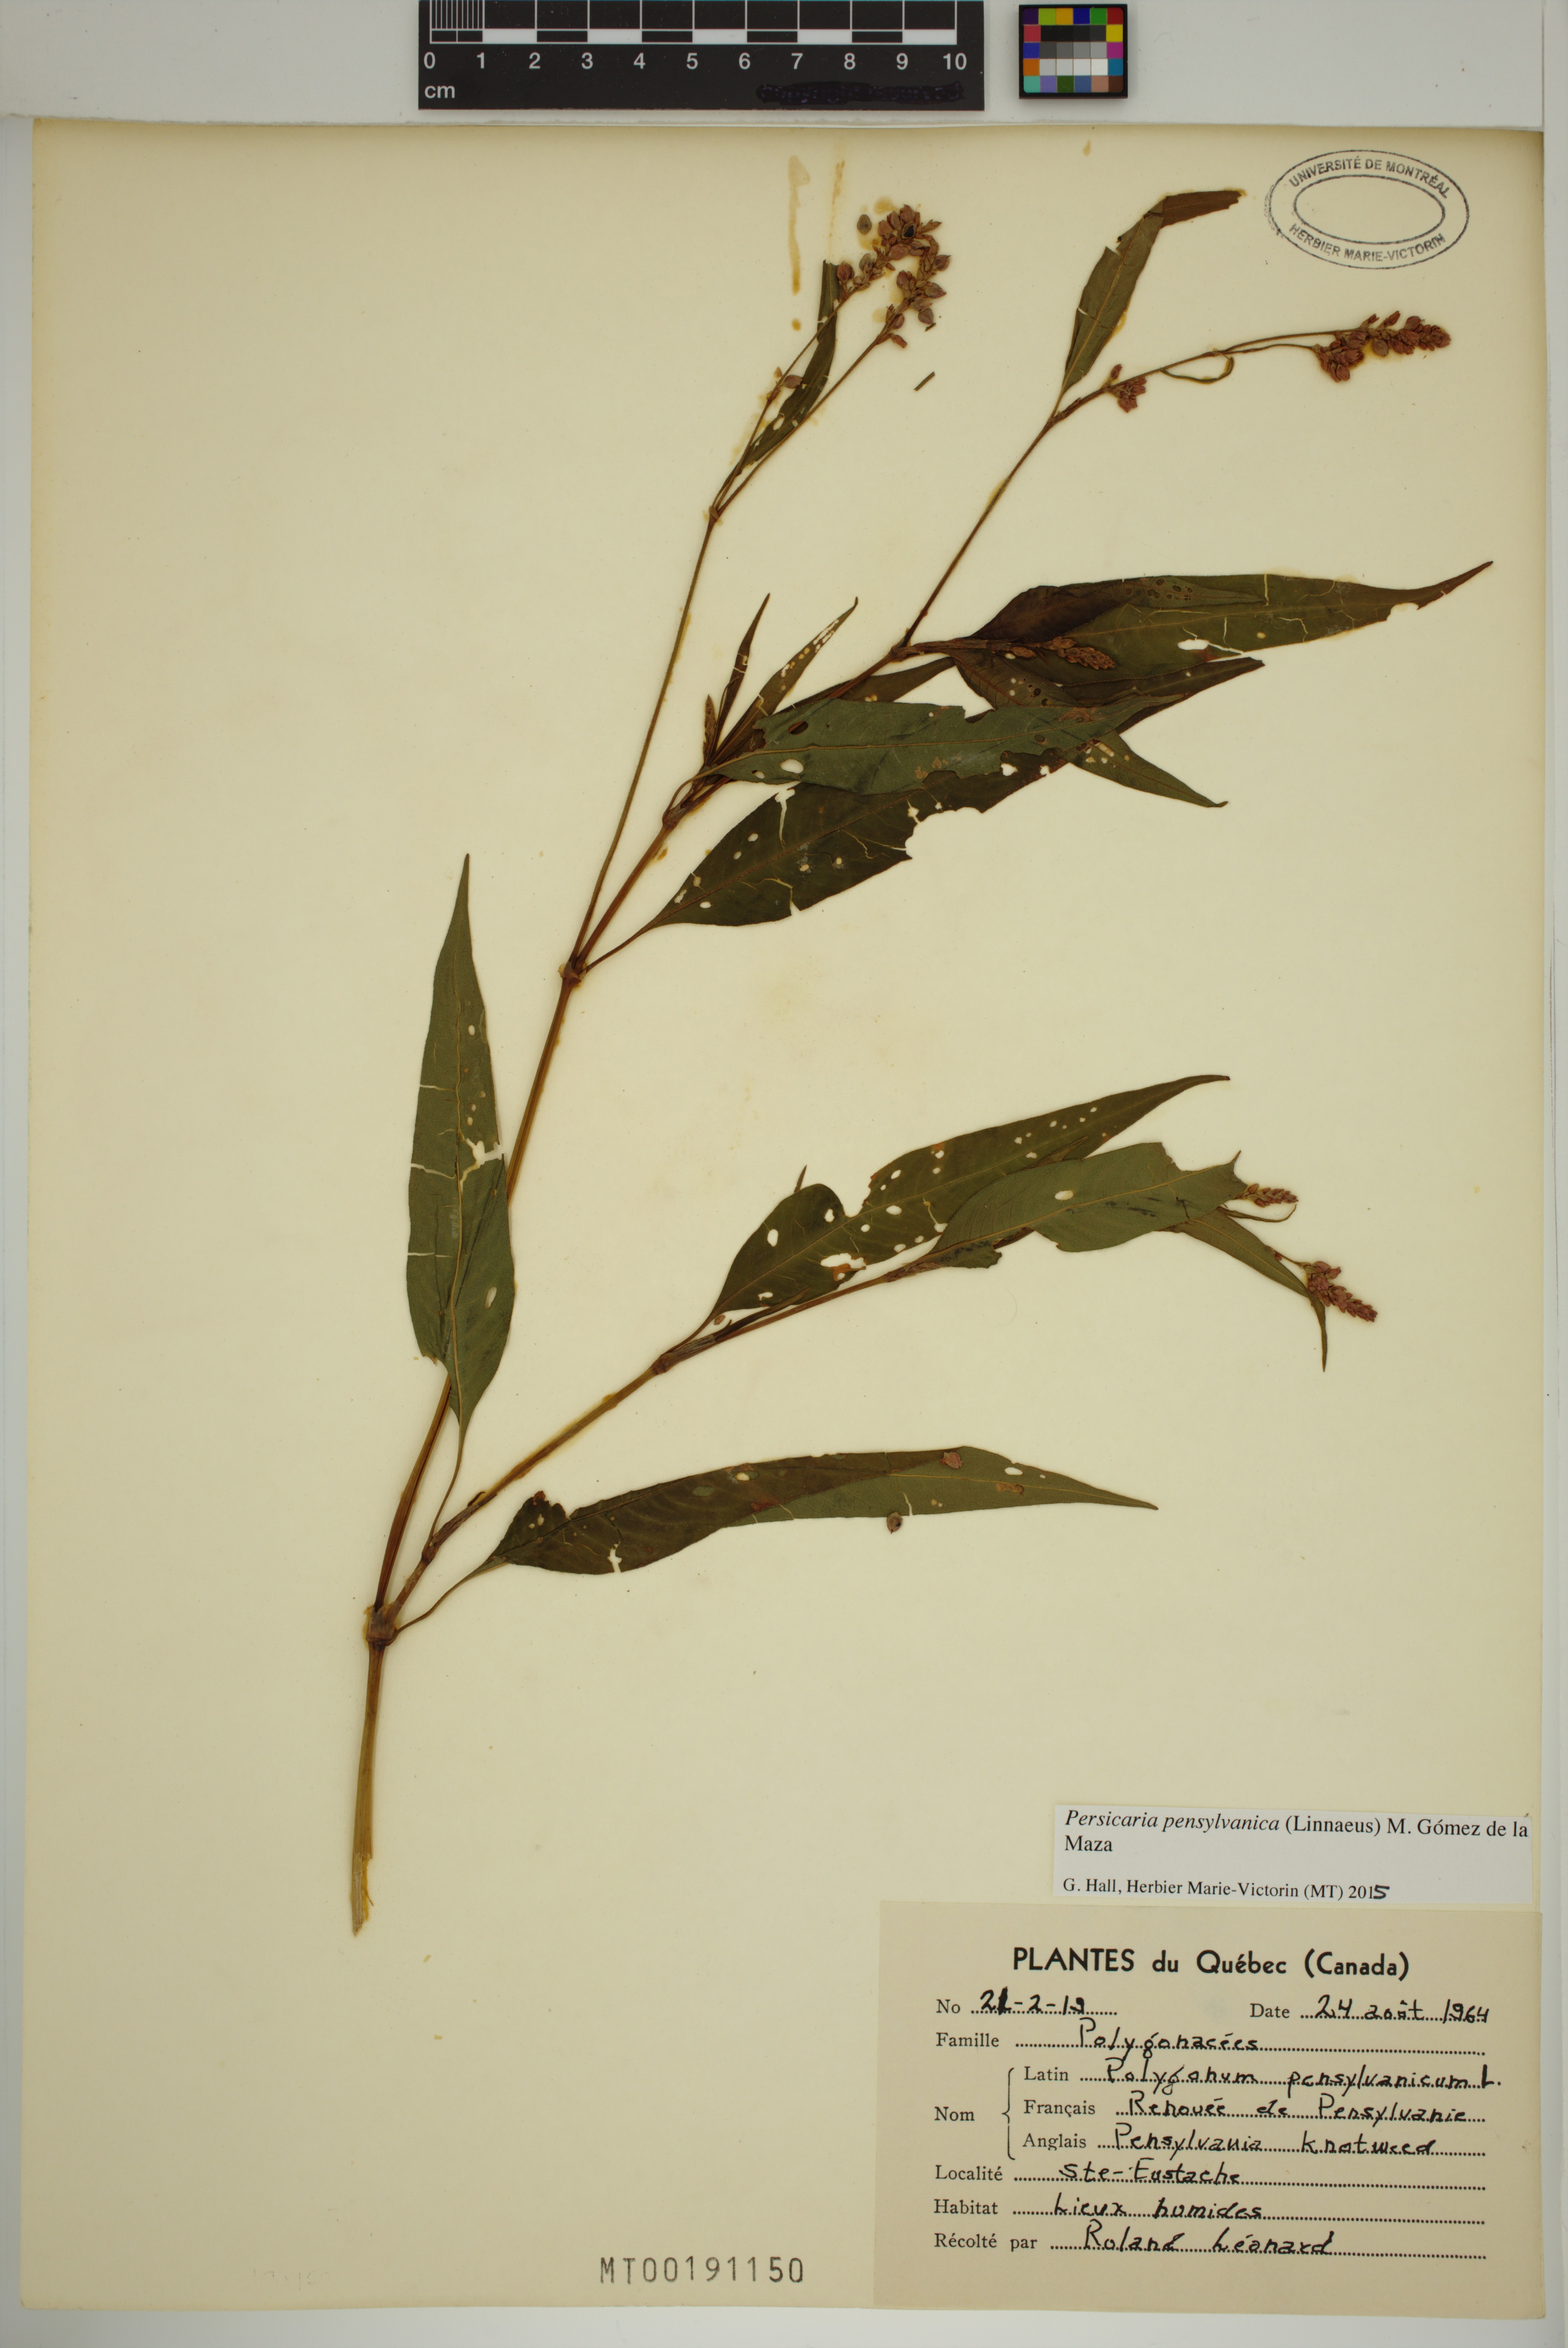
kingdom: Plantae
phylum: Tracheophyta
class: Magnoliopsida
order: Caryophyllales
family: Polygonaceae
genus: Persicaria
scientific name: Persicaria pensylvanica
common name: Pinkweed
